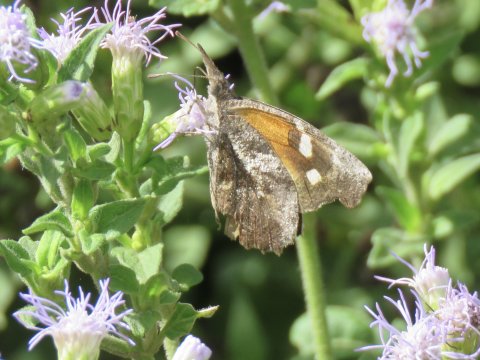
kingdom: Animalia
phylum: Arthropoda
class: Insecta
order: Lepidoptera
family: Nymphalidae
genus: Libytheana
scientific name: Libytheana carinenta
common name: American Snout
